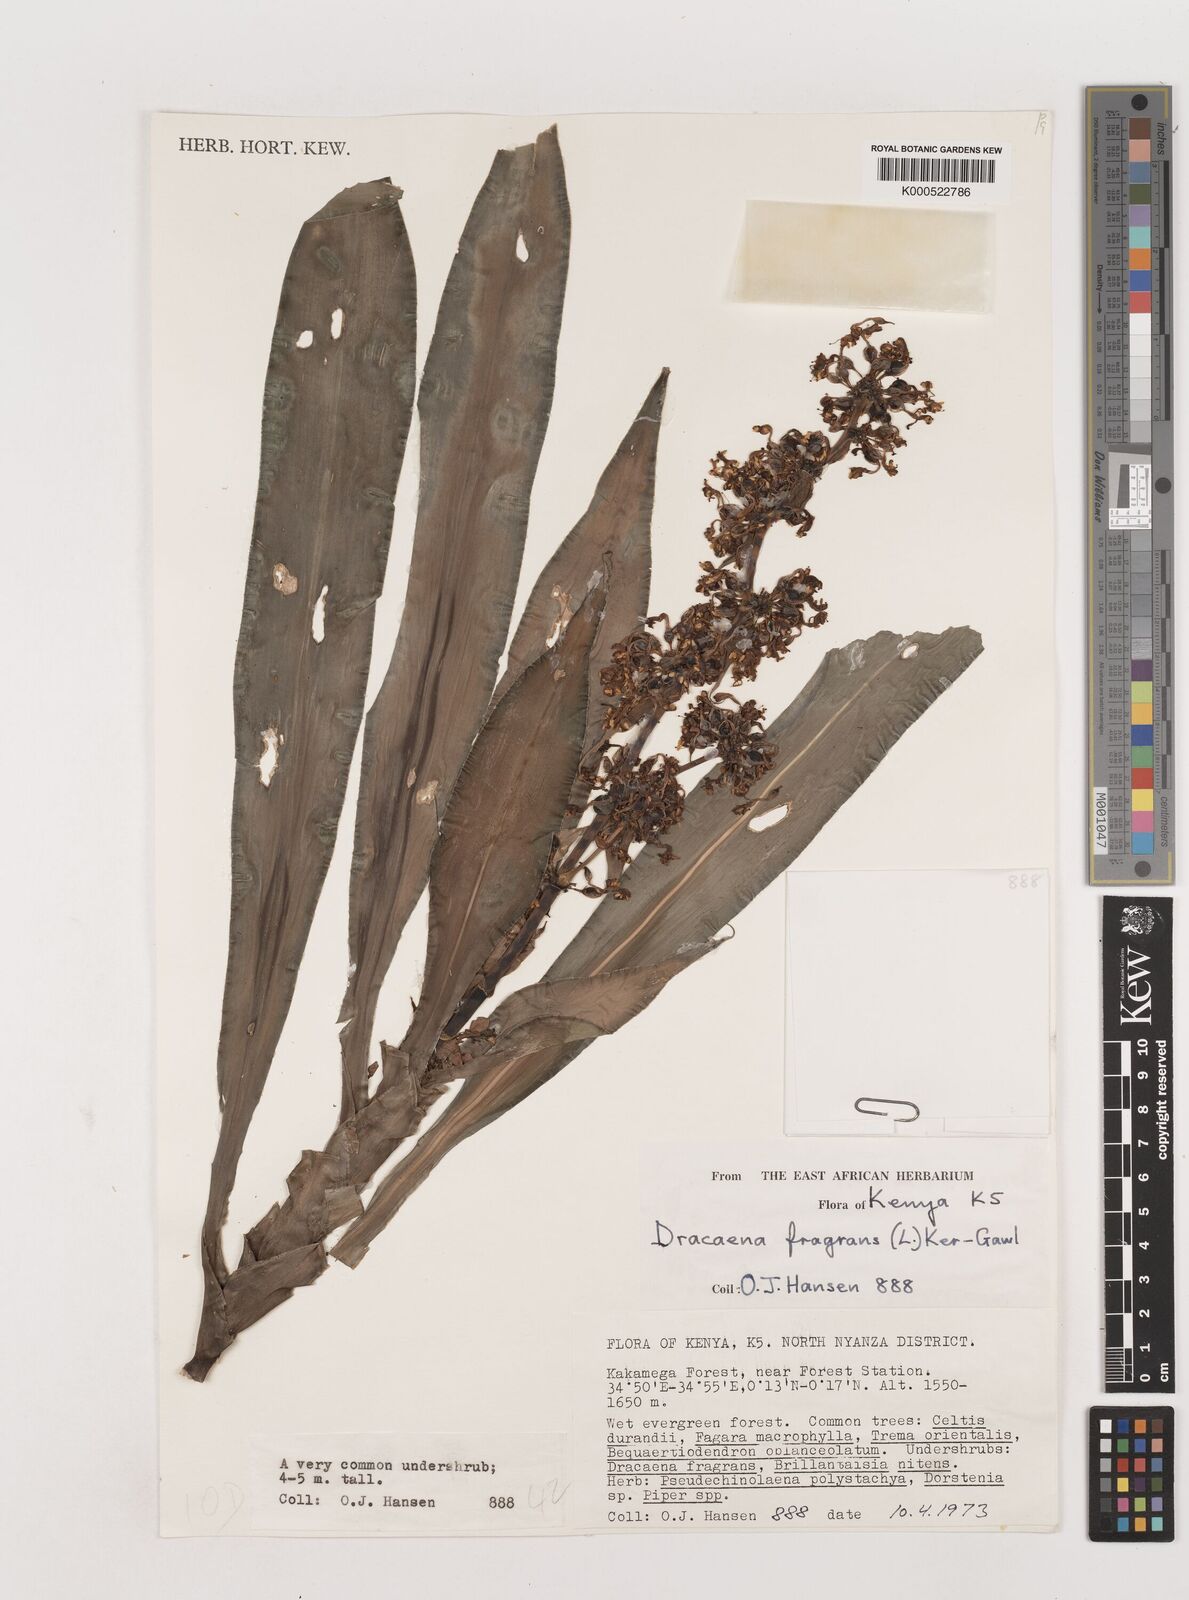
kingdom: Plantae
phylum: Tracheophyta
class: Liliopsida
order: Asparagales
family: Asparagaceae
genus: Dracaena
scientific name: Dracaena fragrans
